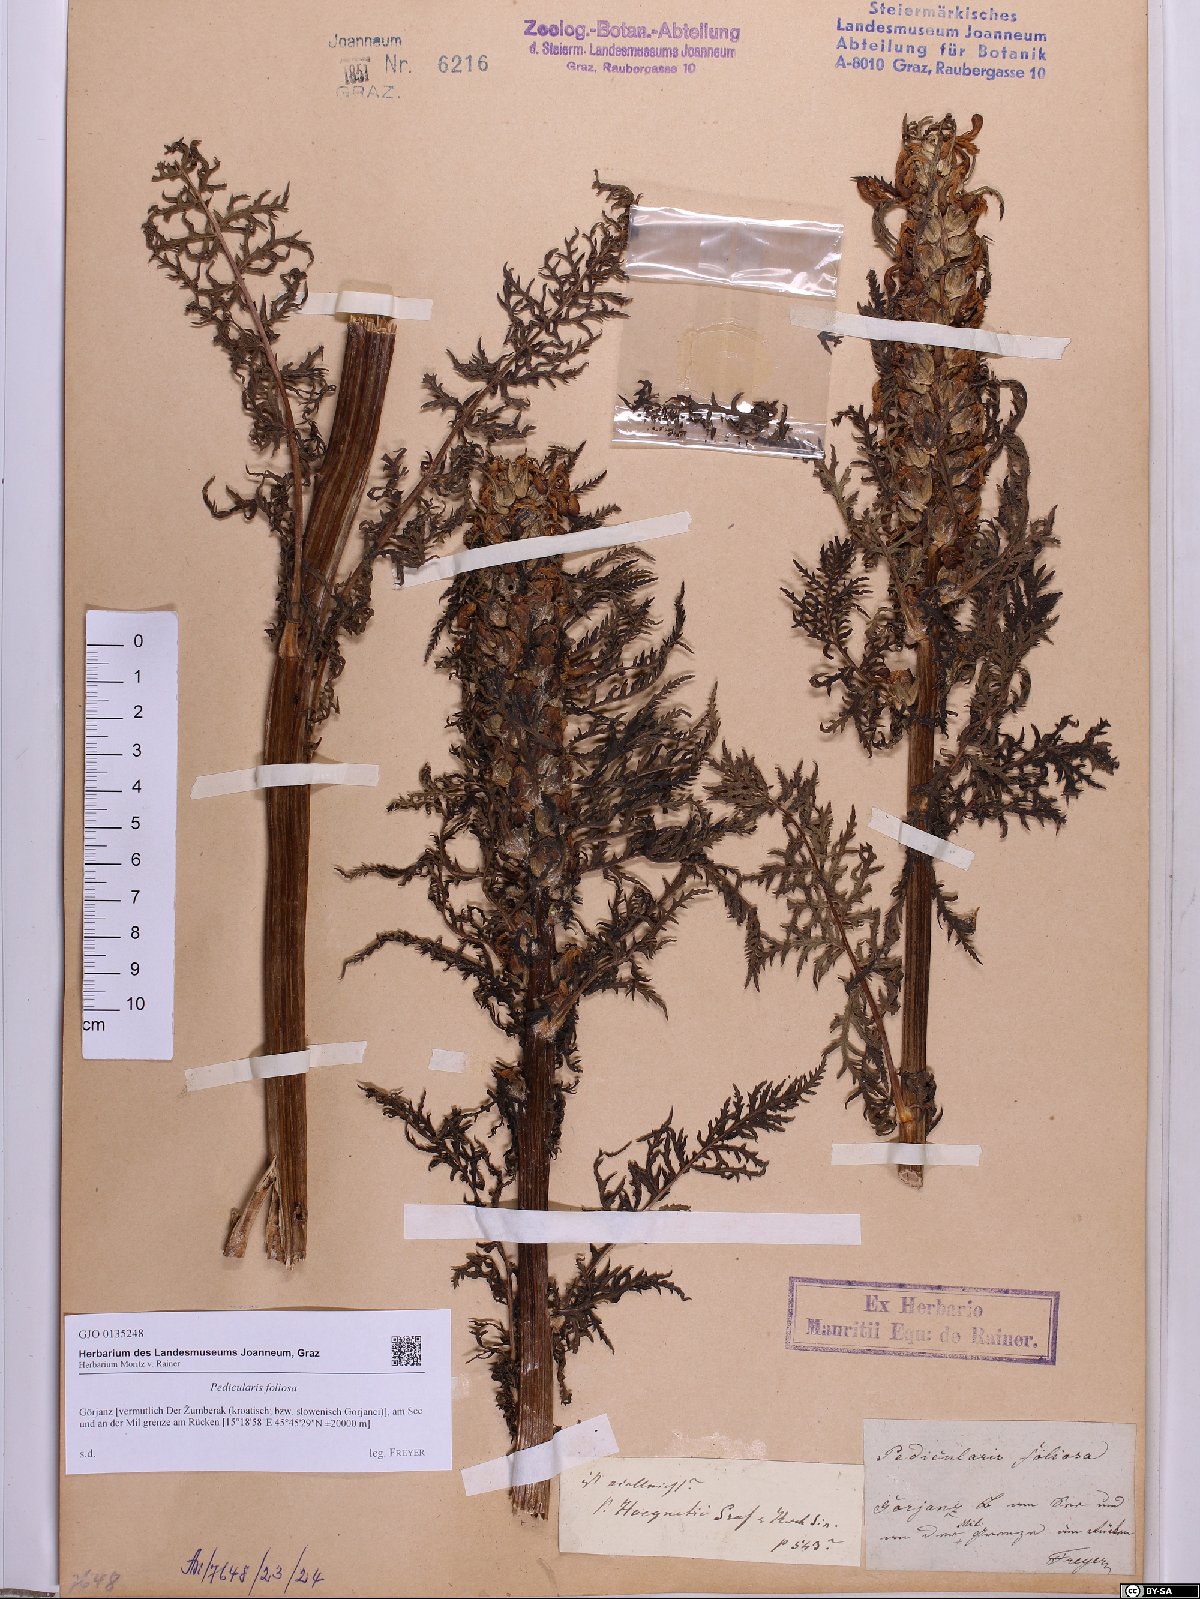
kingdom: Plantae
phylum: Tracheophyta
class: Magnoliopsida
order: Lamiales
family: Orobanchaceae
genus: Pedicularis
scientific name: Pedicularis foliosa
